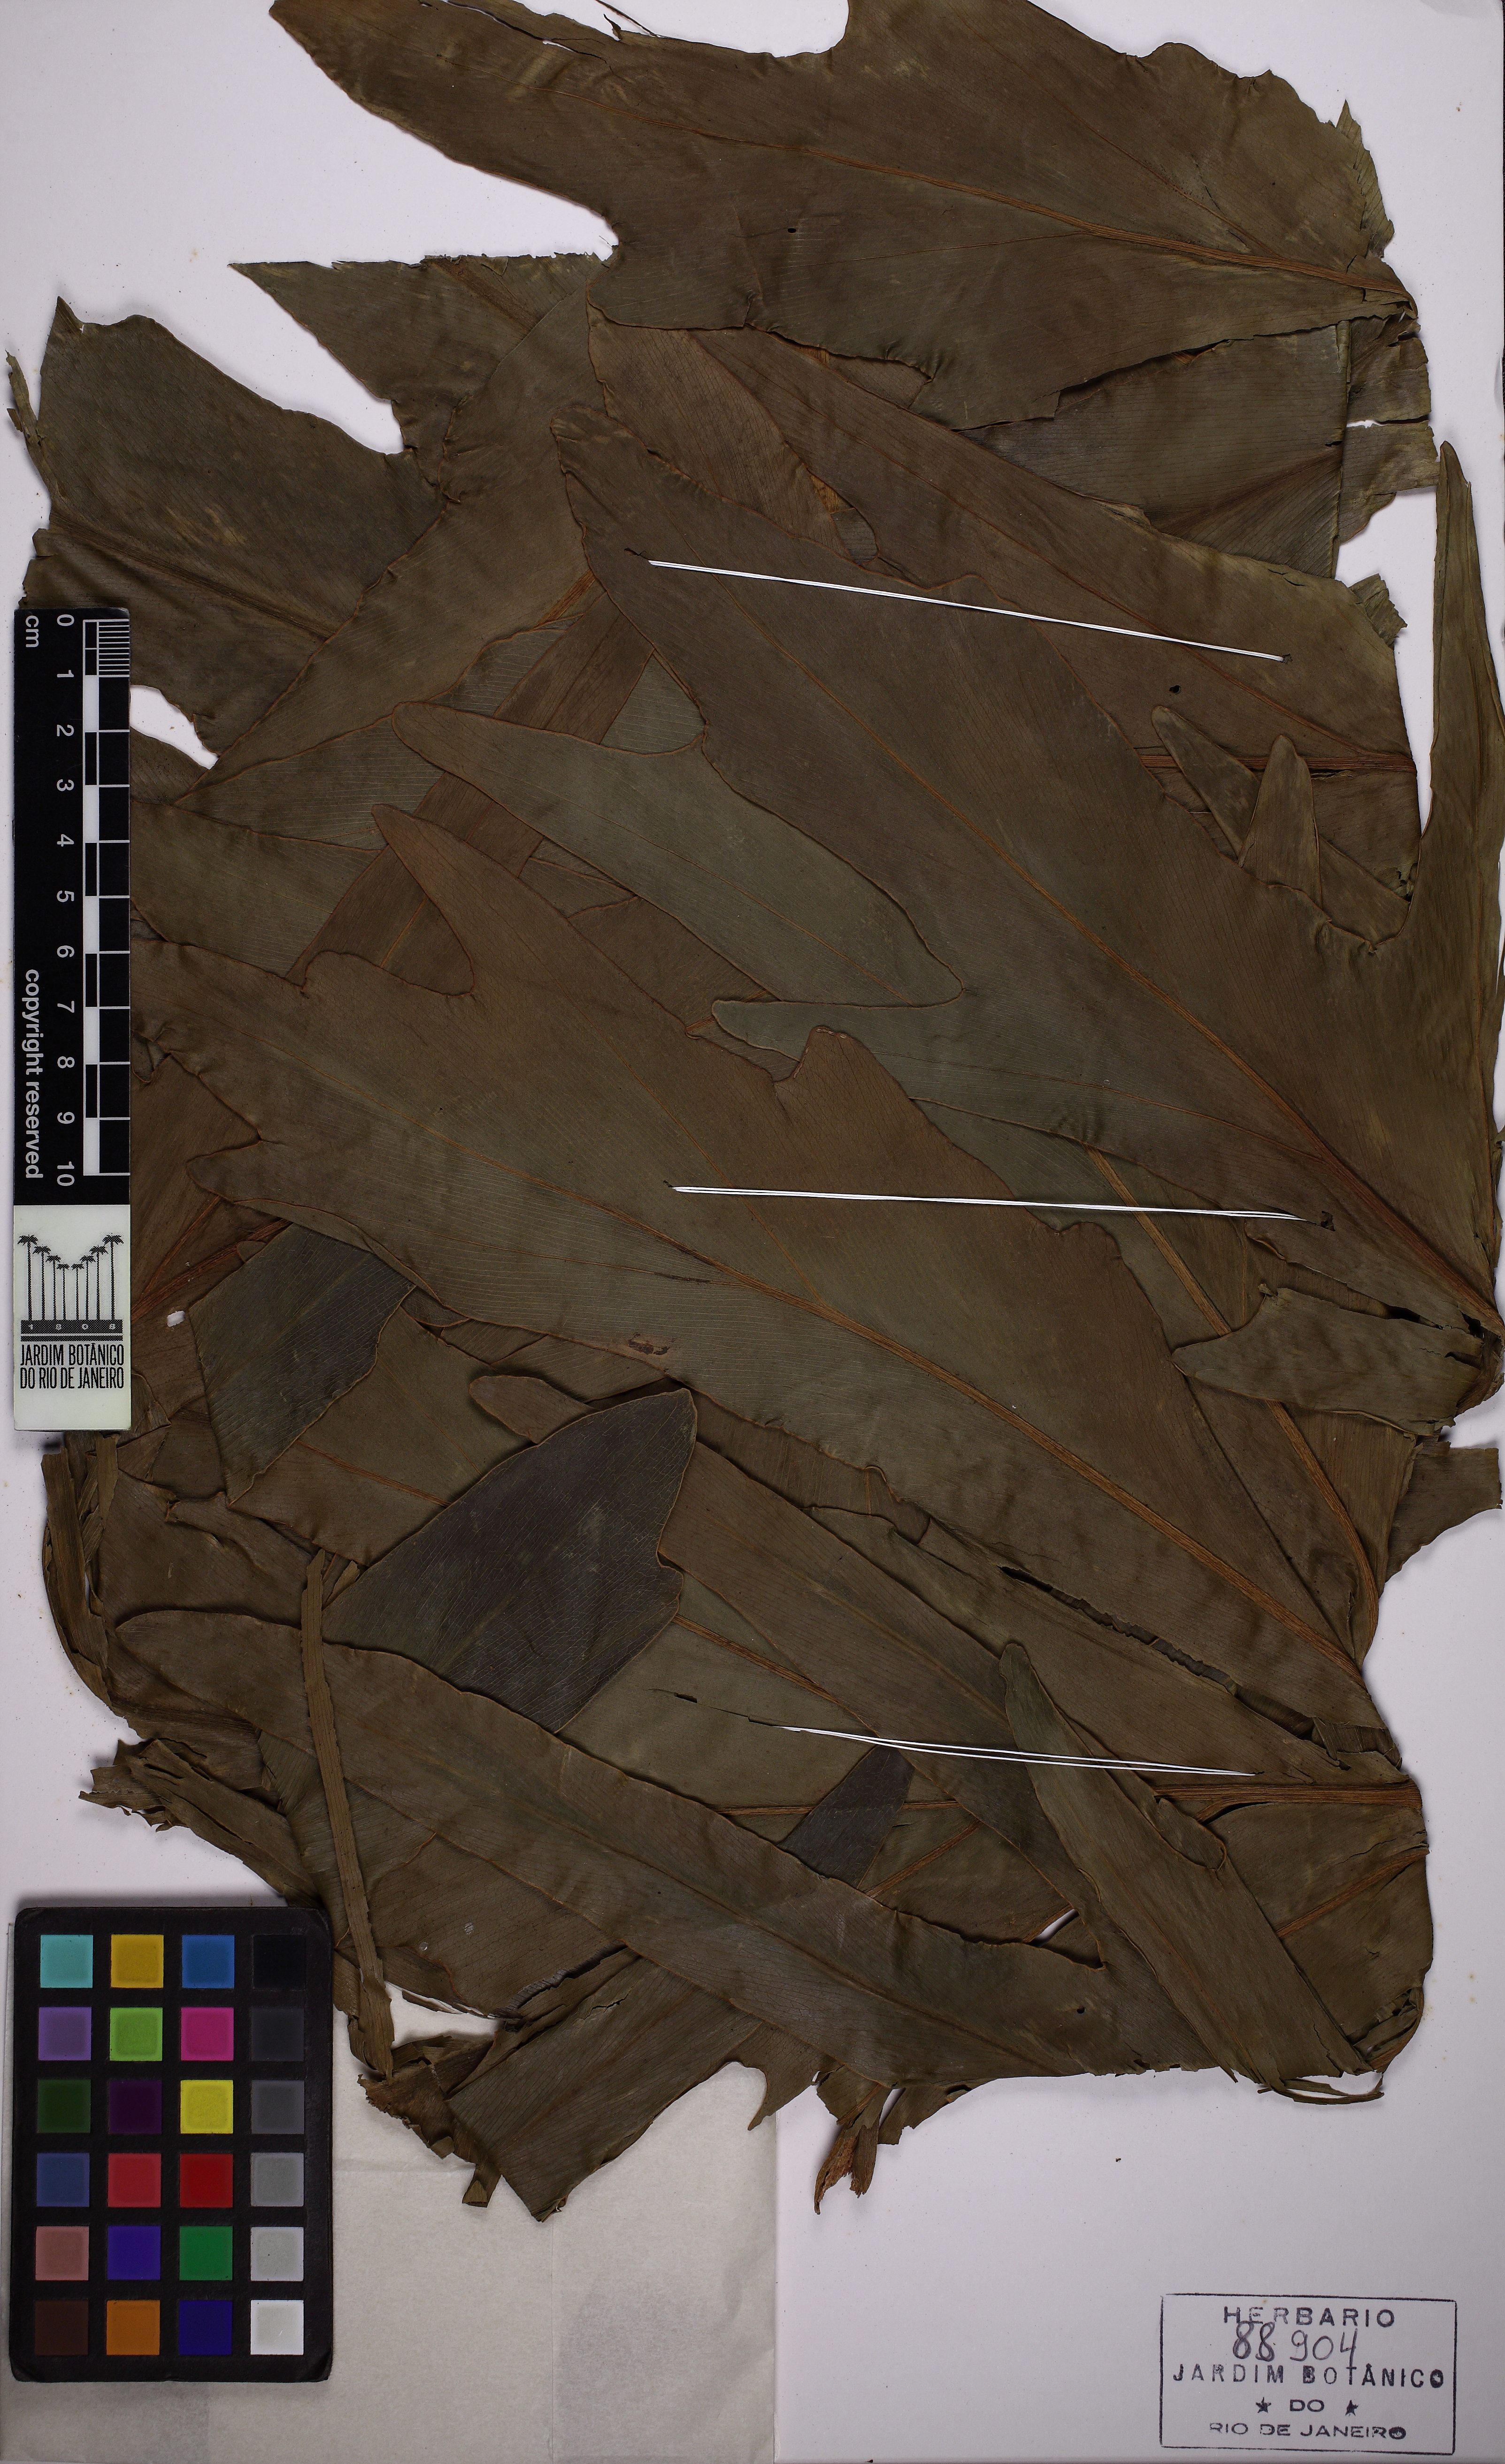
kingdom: Plantae
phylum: Tracheophyta
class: Liliopsida
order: Alismatales
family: Araceae
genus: Thaumatophyllum
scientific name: Thaumatophyllum bipinnatifidum
